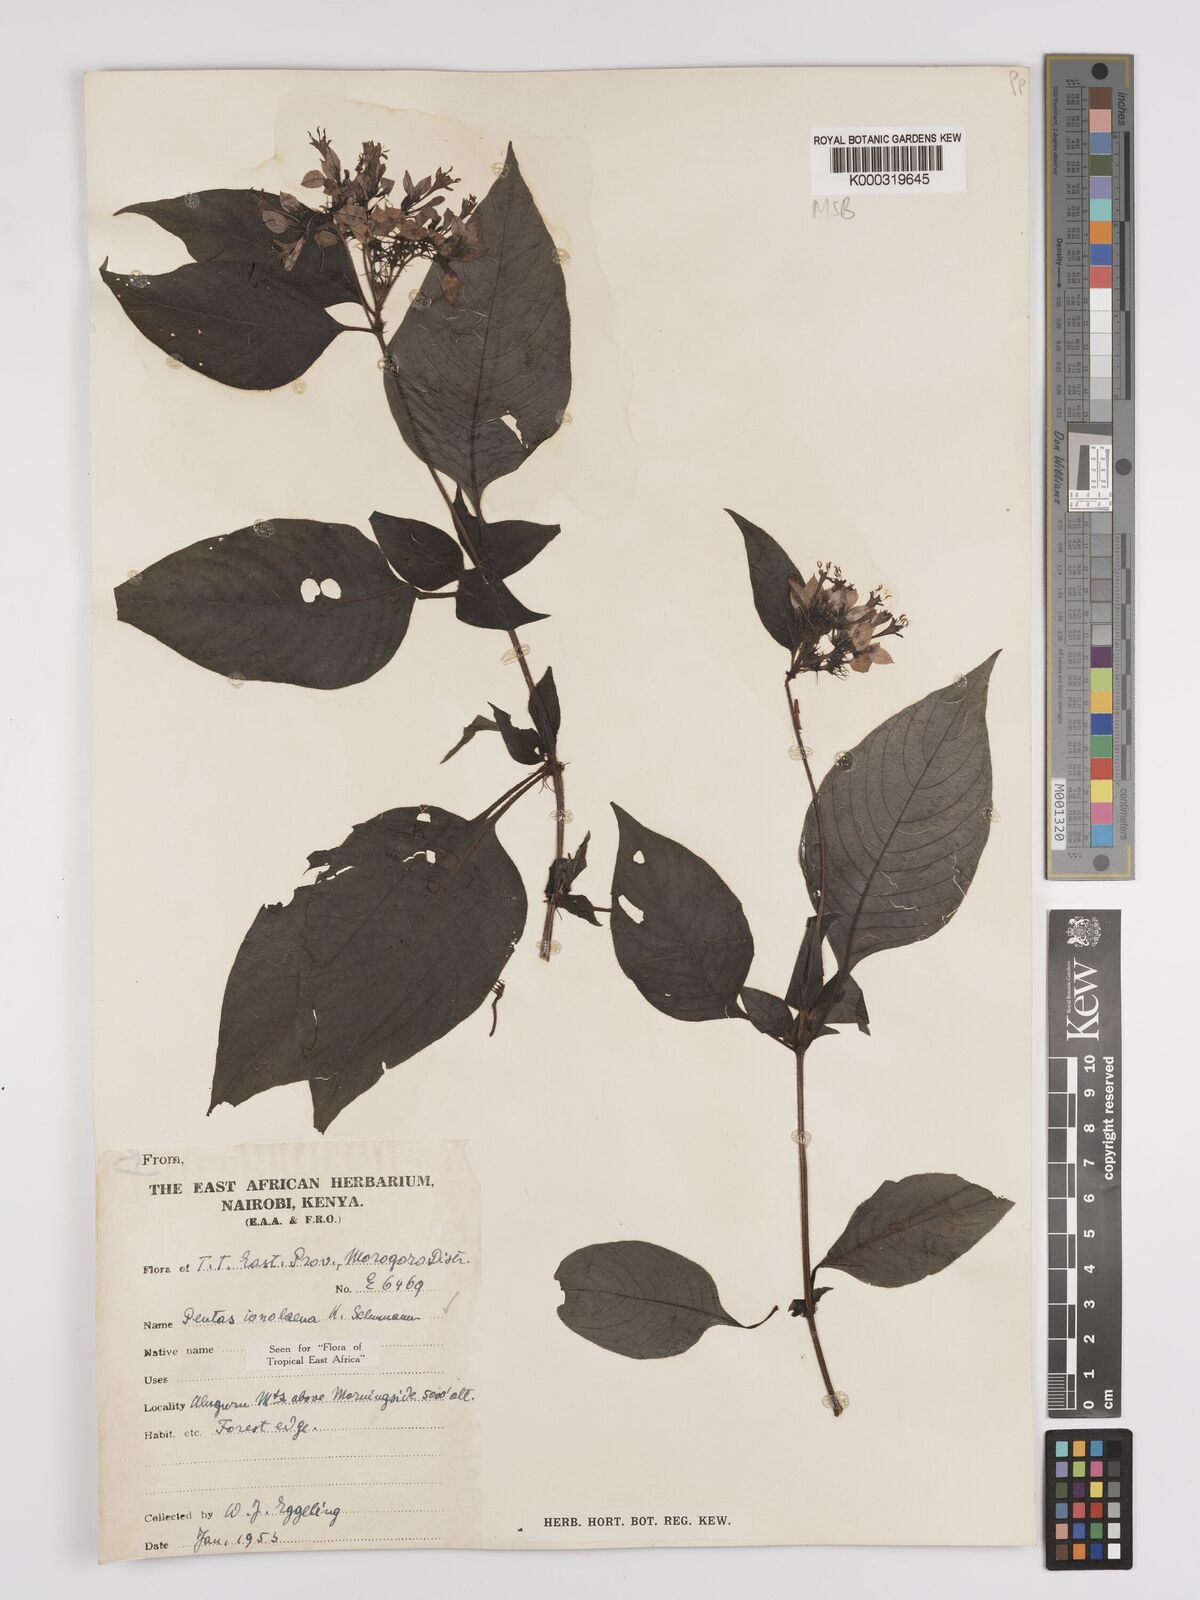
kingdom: Plantae
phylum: Tracheophyta
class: Magnoliopsida
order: Gentianales
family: Rubiaceae
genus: Phyllopentas
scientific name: Phyllopentas ionolaena
